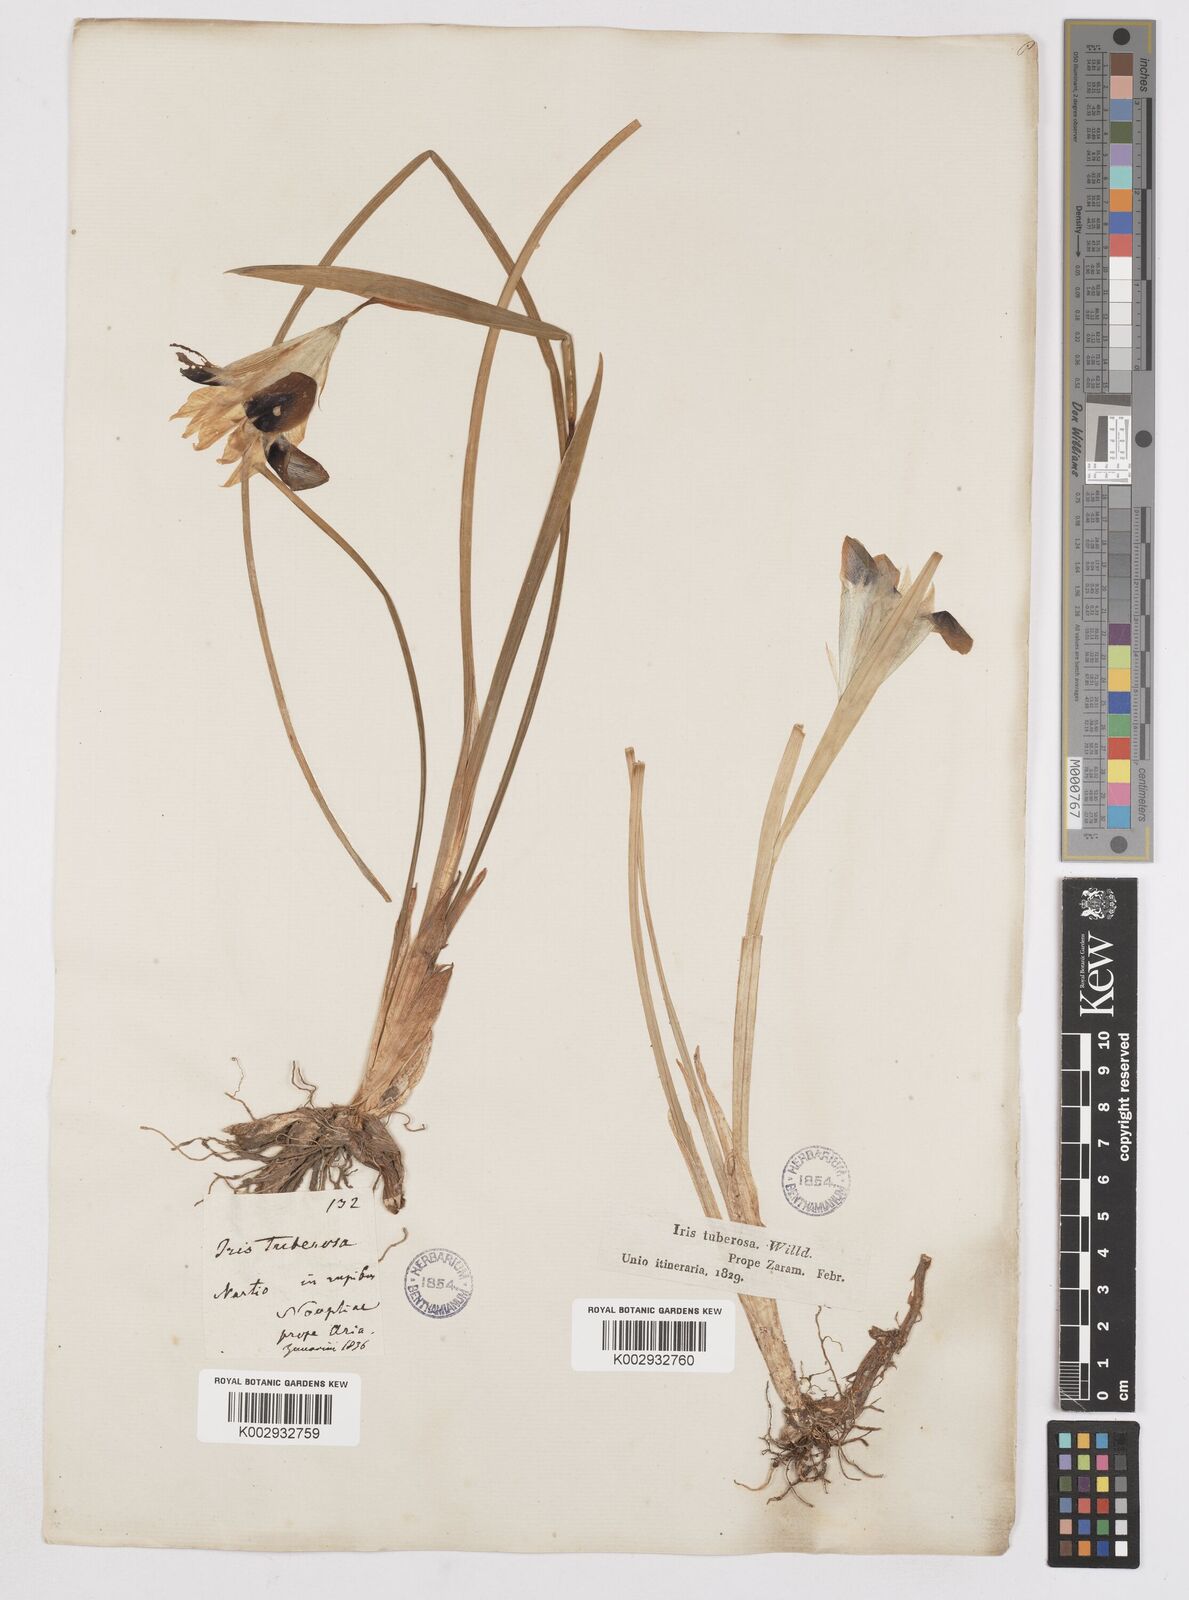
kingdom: Plantae
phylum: Tracheophyta
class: Liliopsida
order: Asparagales
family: Iridaceae
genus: Iris
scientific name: Iris tuberosa
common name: Snake's-head iris
